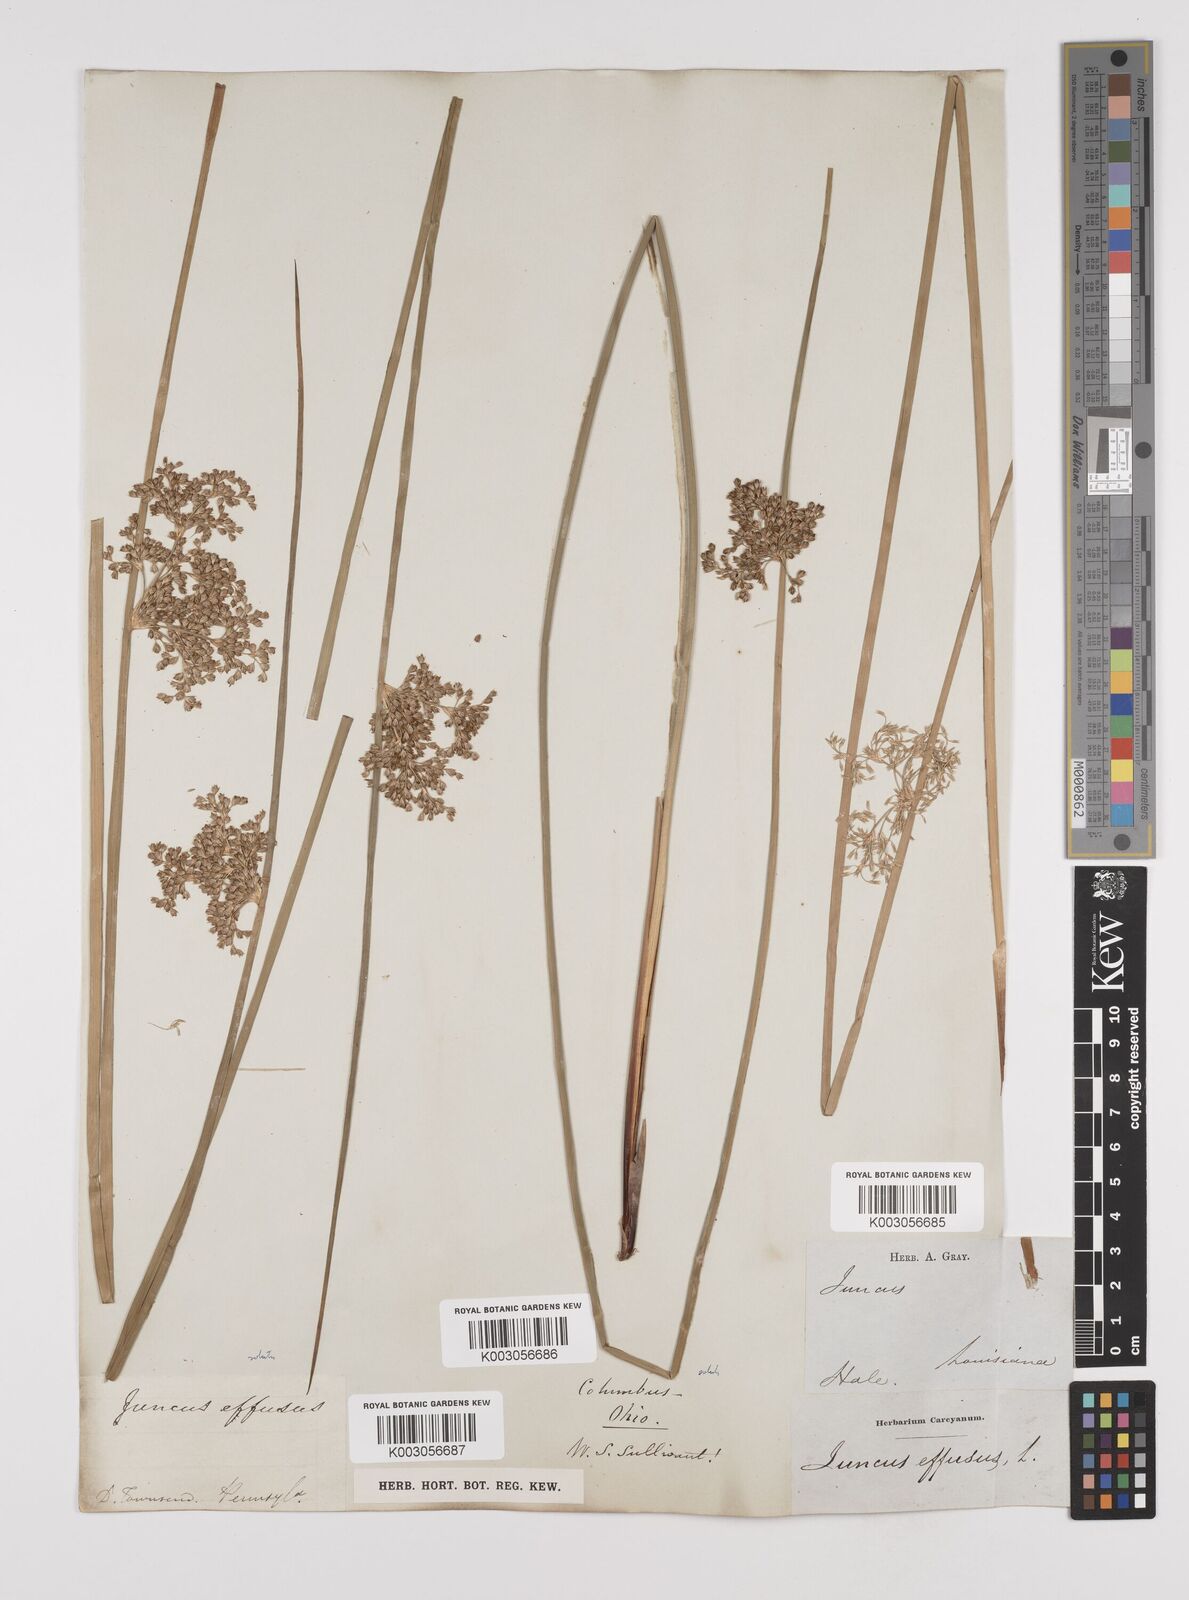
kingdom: Plantae
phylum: Tracheophyta
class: Liliopsida
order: Poales
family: Juncaceae
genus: Juncus
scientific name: Juncus effusus
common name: Soft rush
